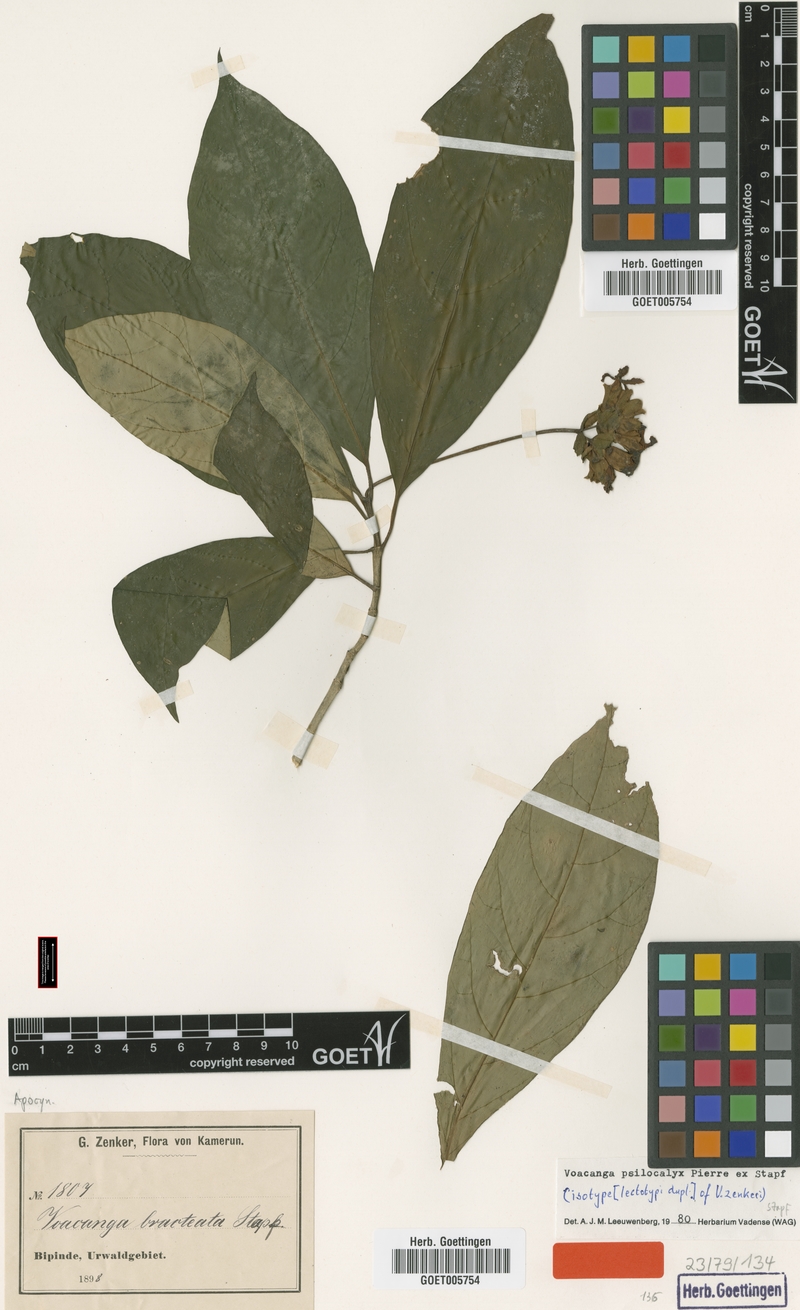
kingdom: Plantae
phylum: Tracheophyta
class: Magnoliopsida
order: Gentianales
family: Apocynaceae
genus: Voacanga
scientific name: Voacanga psilocalyx
